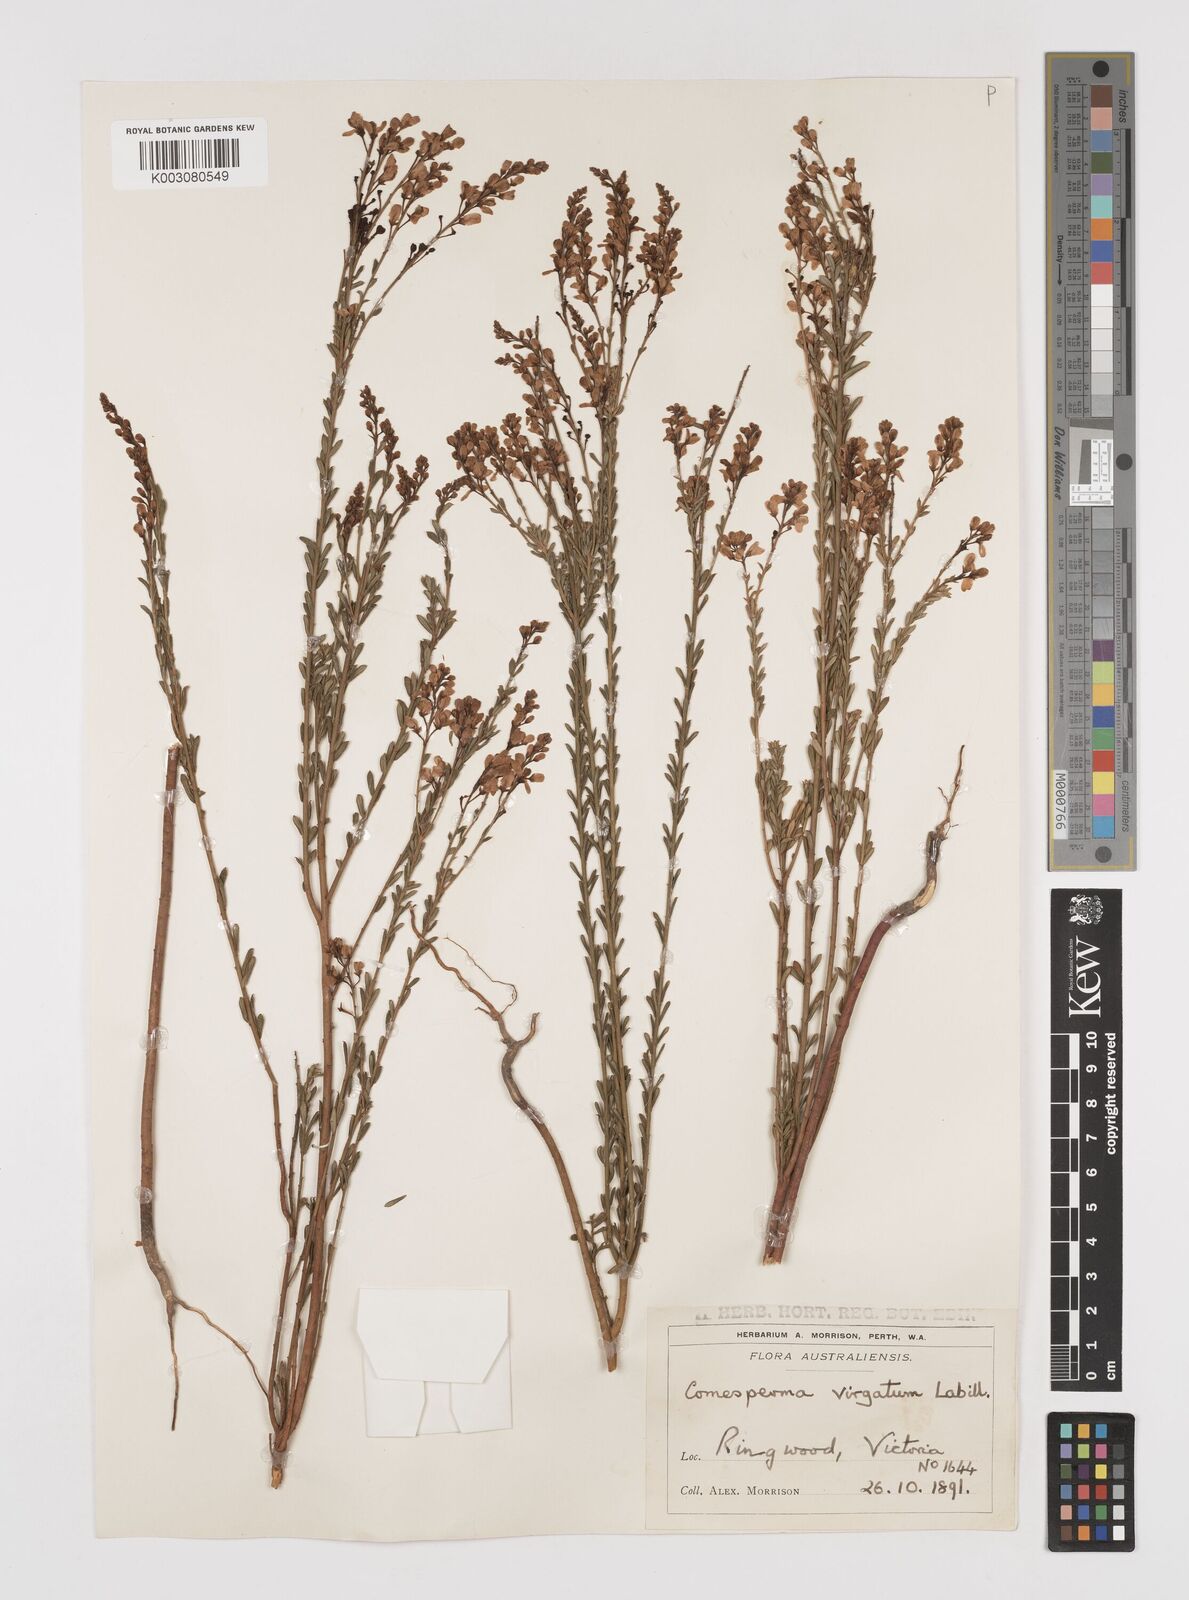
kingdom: Plantae
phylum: Tracheophyta
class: Magnoliopsida
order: Fabales
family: Polygalaceae
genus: Comesperma
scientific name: Comesperma virgatum
